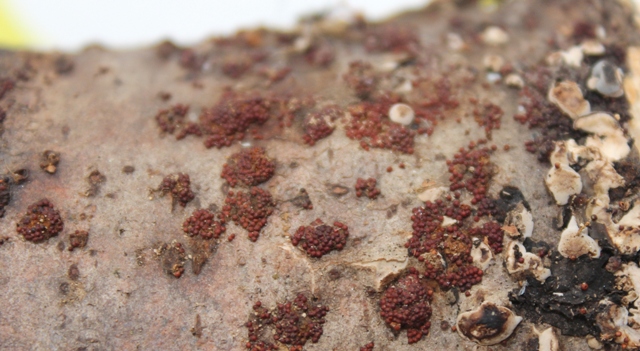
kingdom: Fungi
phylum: Ascomycota
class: Sordariomycetes
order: Hypocreales
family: Nectriaceae
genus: Neonectria
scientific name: Neonectria coccinea
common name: bøgebark-cinnobersvamp
